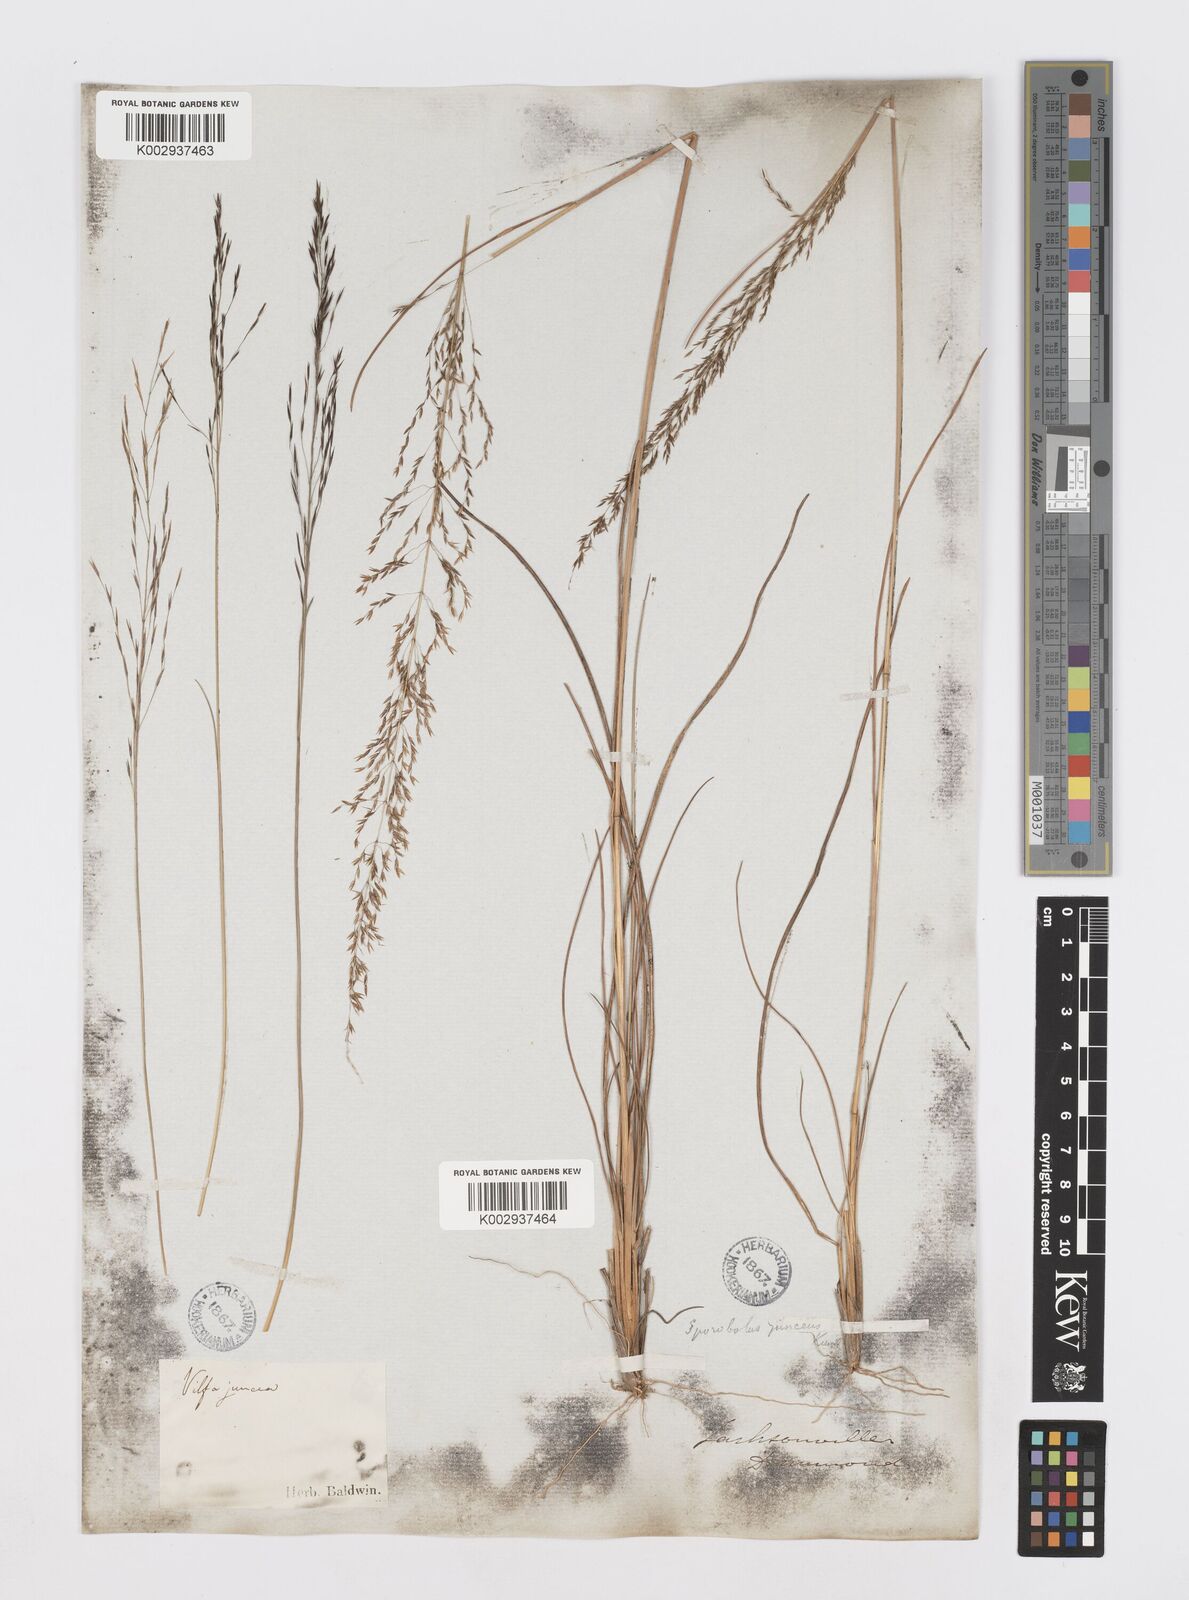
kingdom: Plantae
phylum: Tracheophyta
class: Liliopsida
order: Poales
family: Poaceae
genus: Sporobolus
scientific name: Sporobolus junceus
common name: Lizard grass
